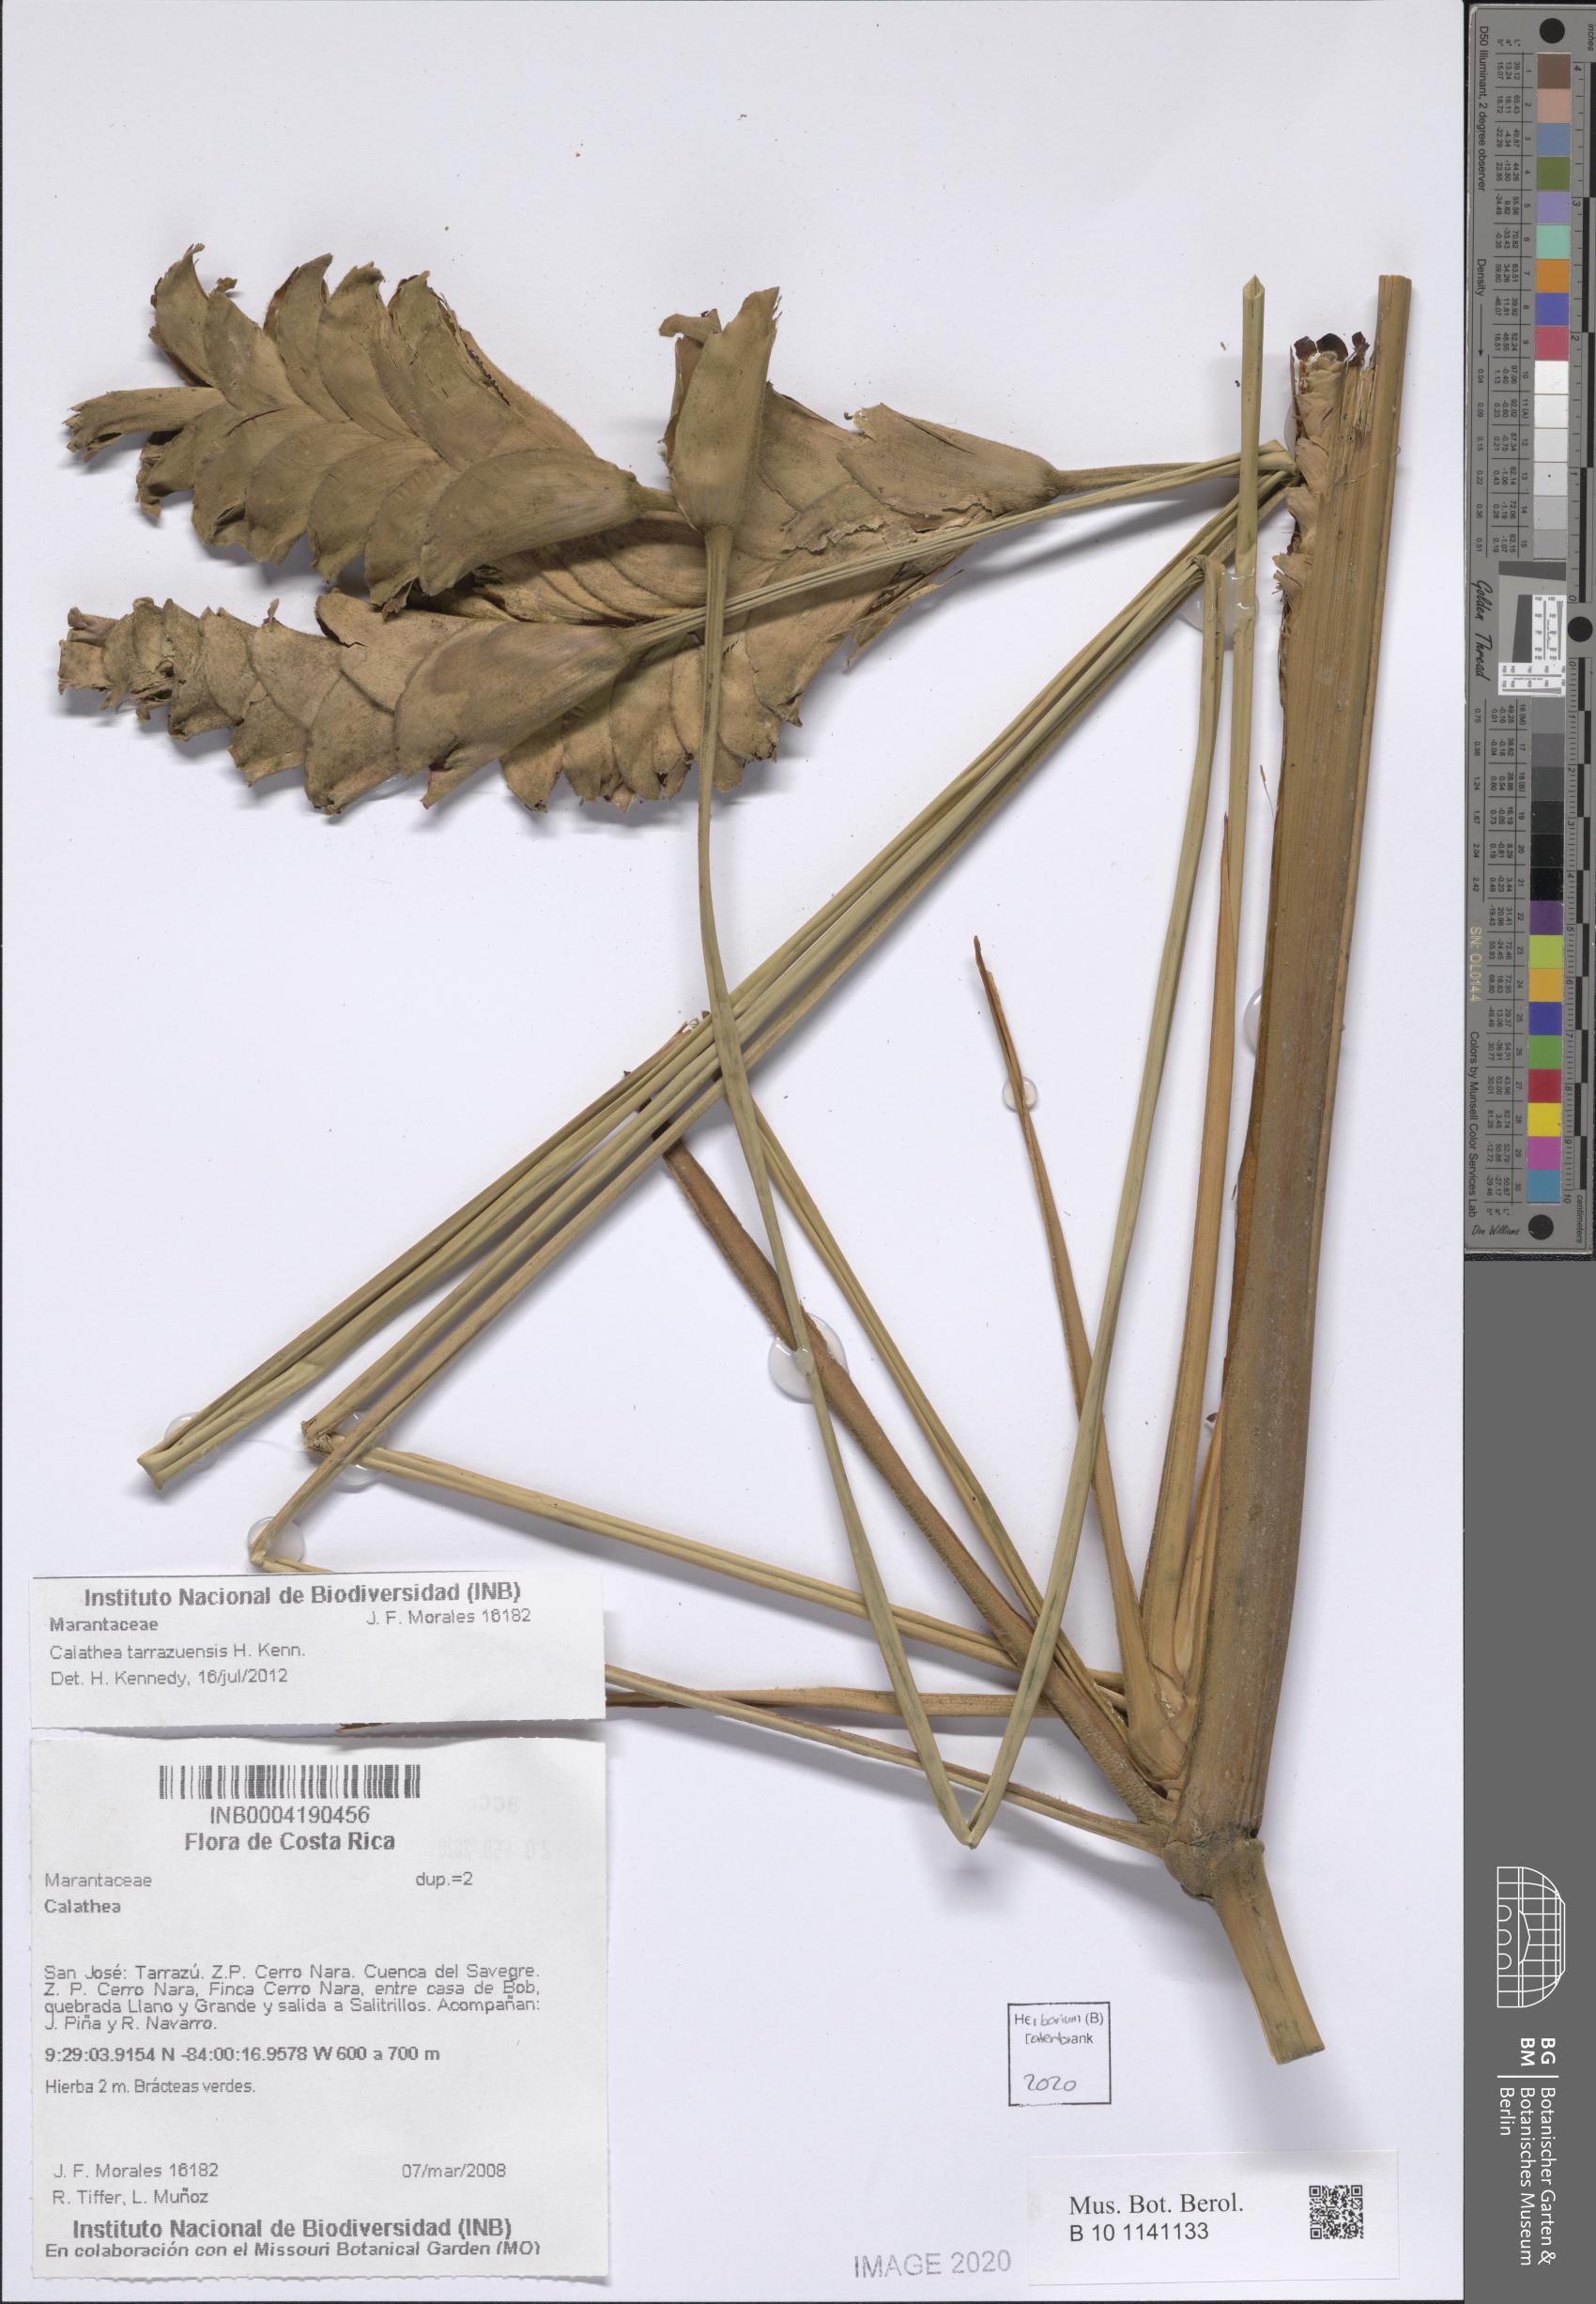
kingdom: Plantae
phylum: Tracheophyta
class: Liliopsida
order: Zingiberales
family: Marantaceae
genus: Calathea
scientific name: Calathea tarrazuensis
